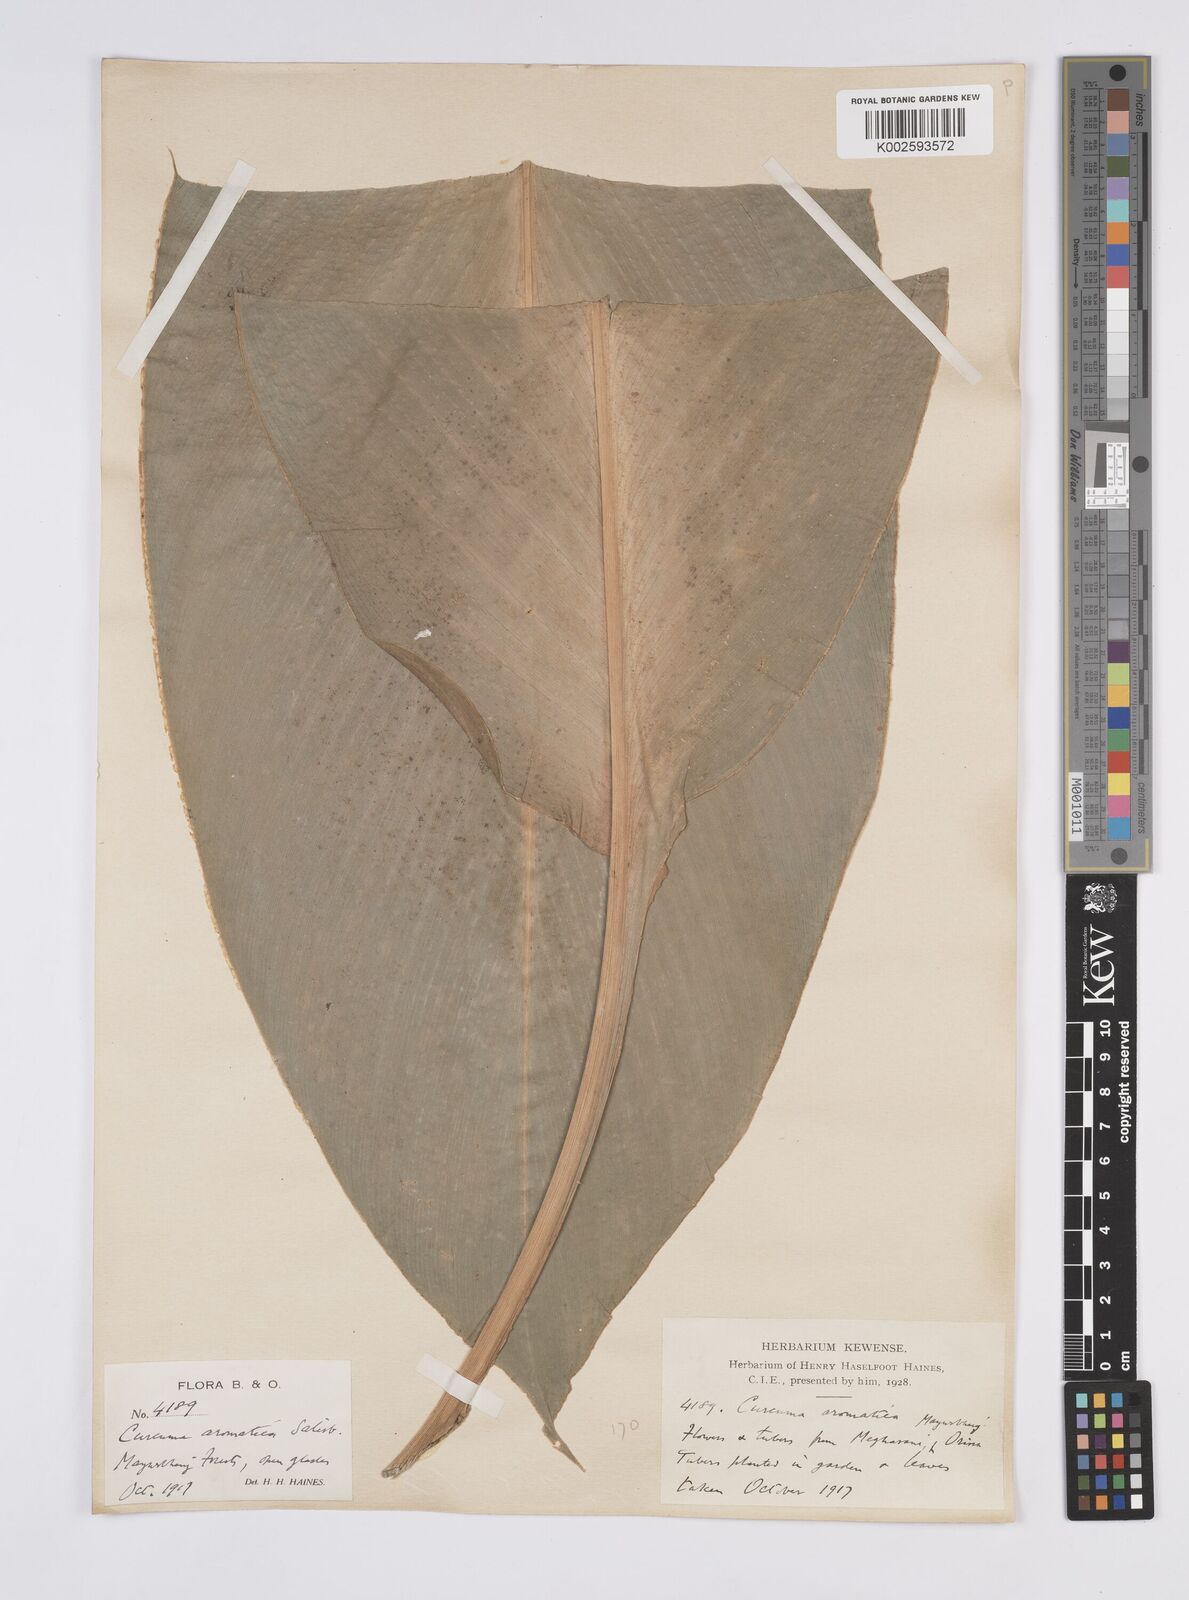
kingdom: Plantae
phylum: Tracheophyta
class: Liliopsida
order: Zingiberales
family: Zingiberaceae
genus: Curcuma
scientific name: Curcuma aromatica
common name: Wild turmeric
